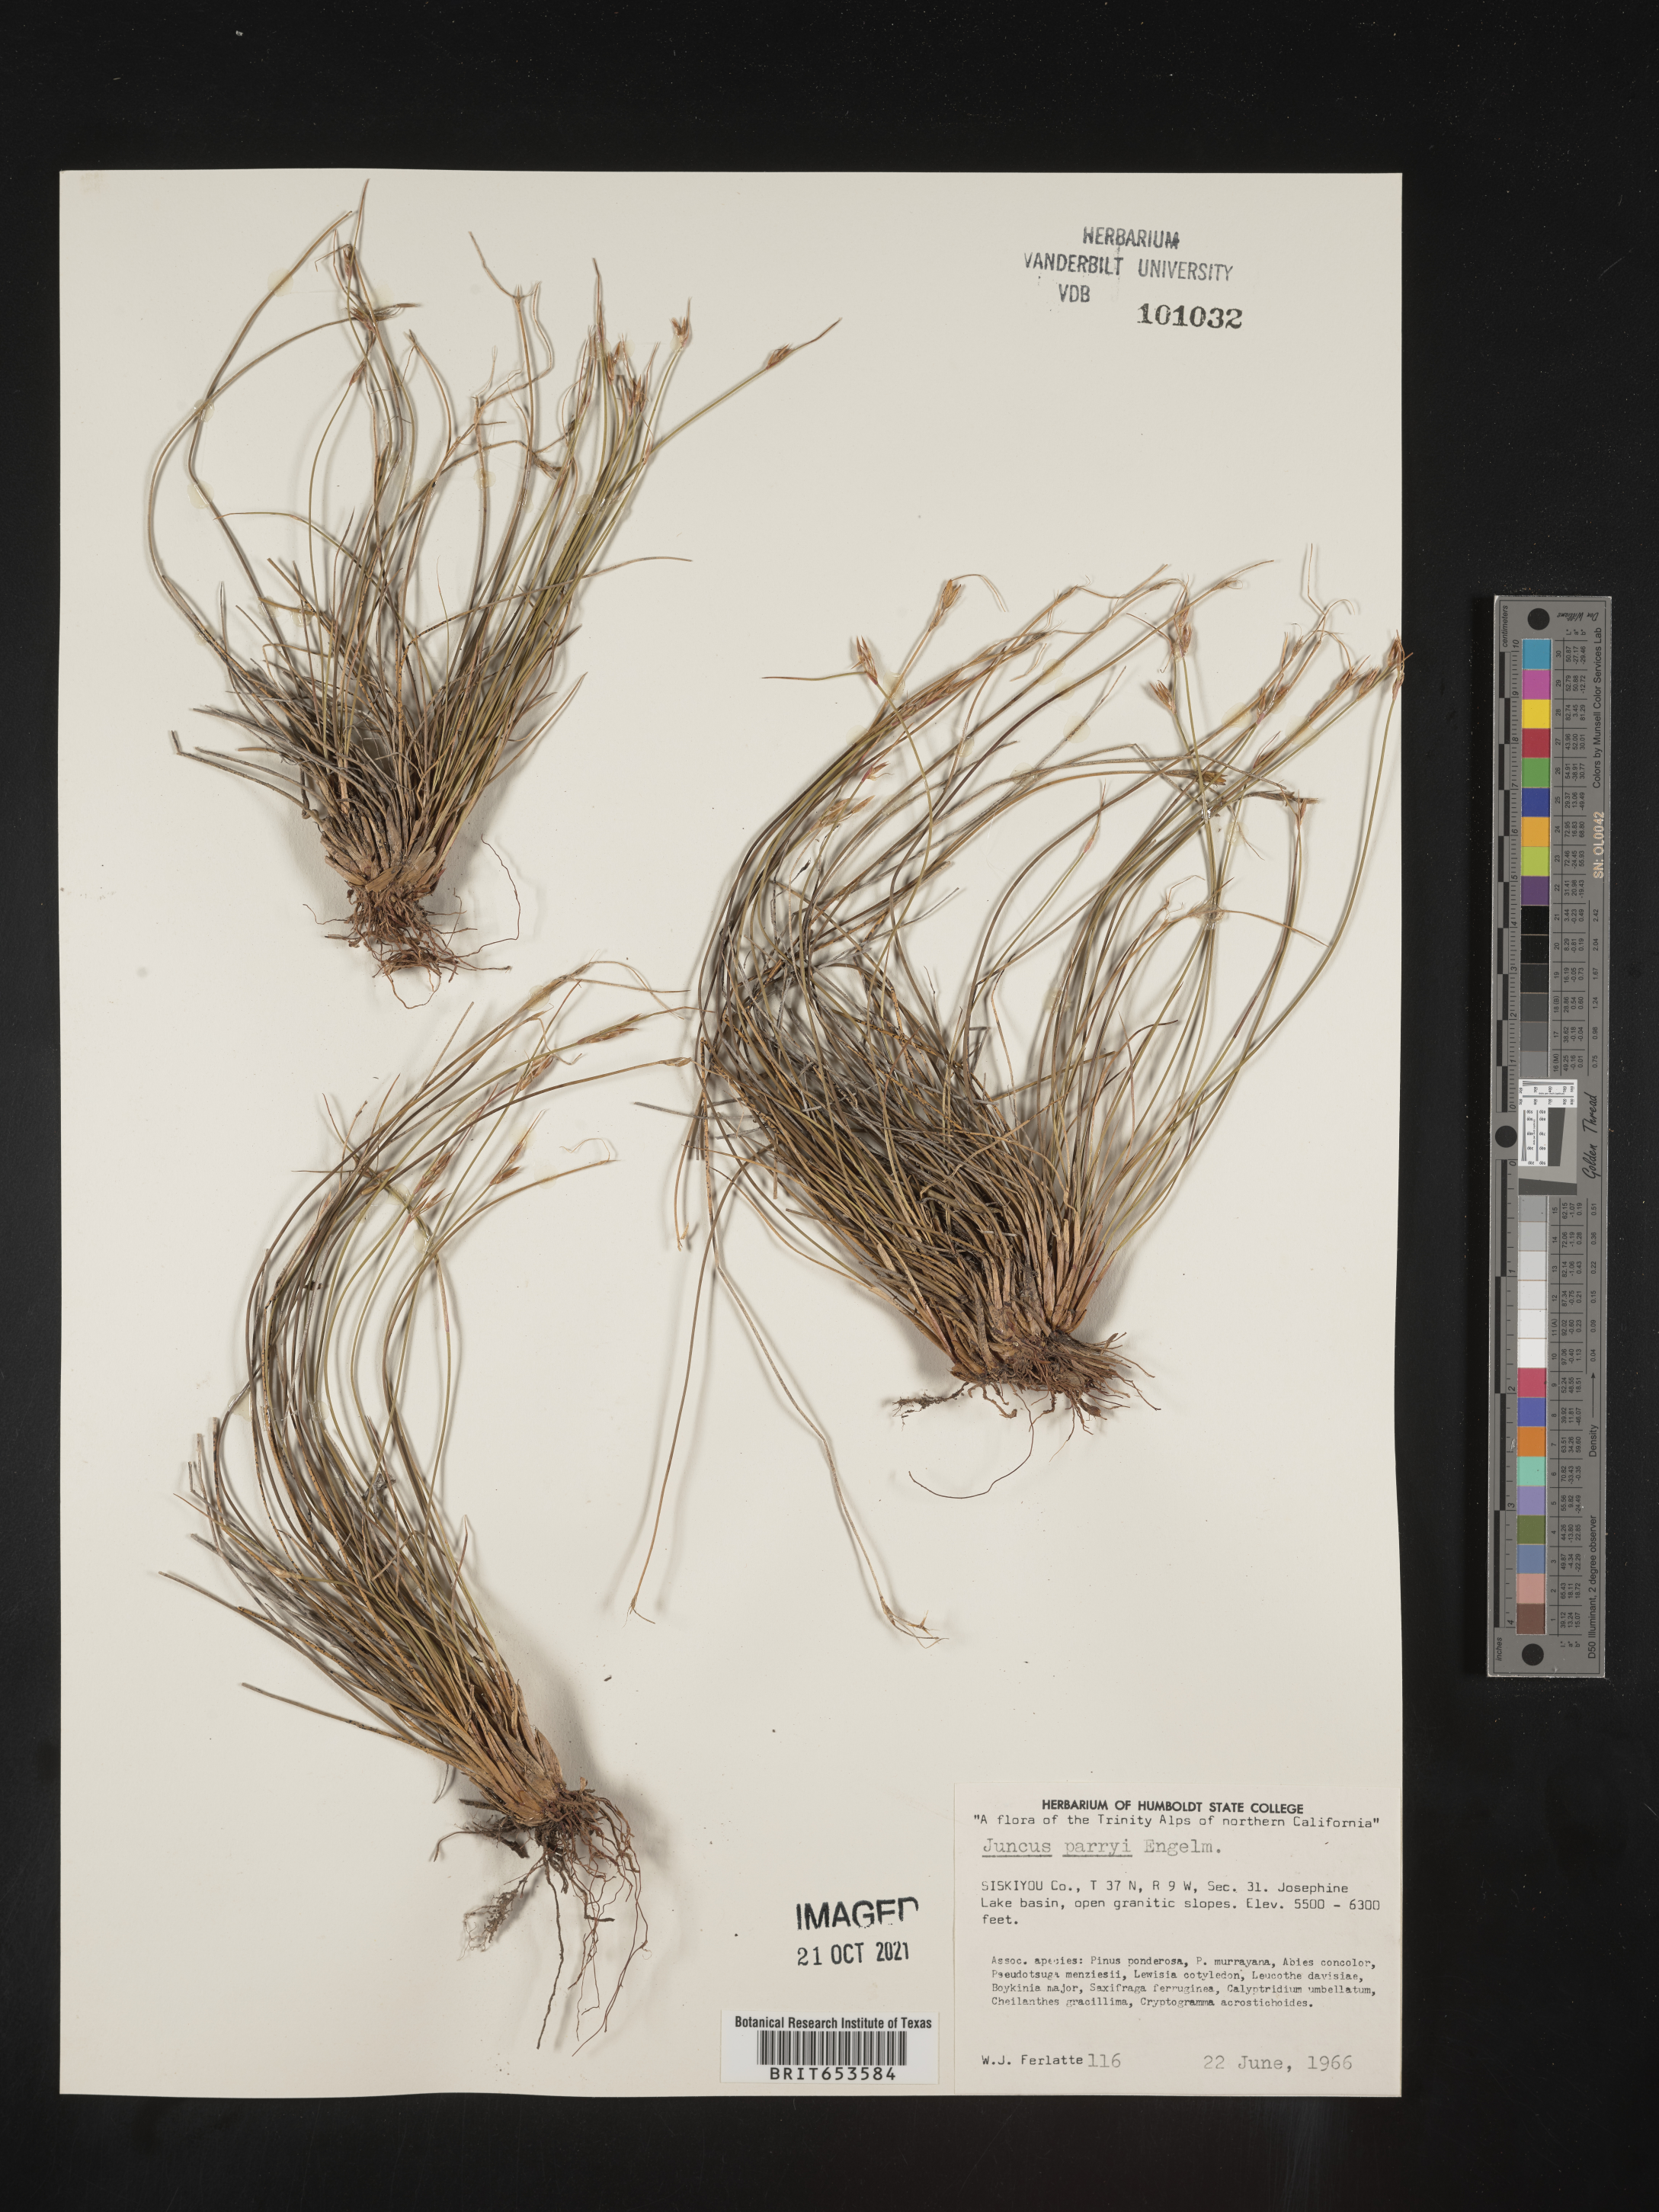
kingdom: Plantae
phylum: Tracheophyta
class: Liliopsida
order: Poales
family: Juncaceae
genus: Juncus
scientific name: Juncus parryi
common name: Parry's rush
